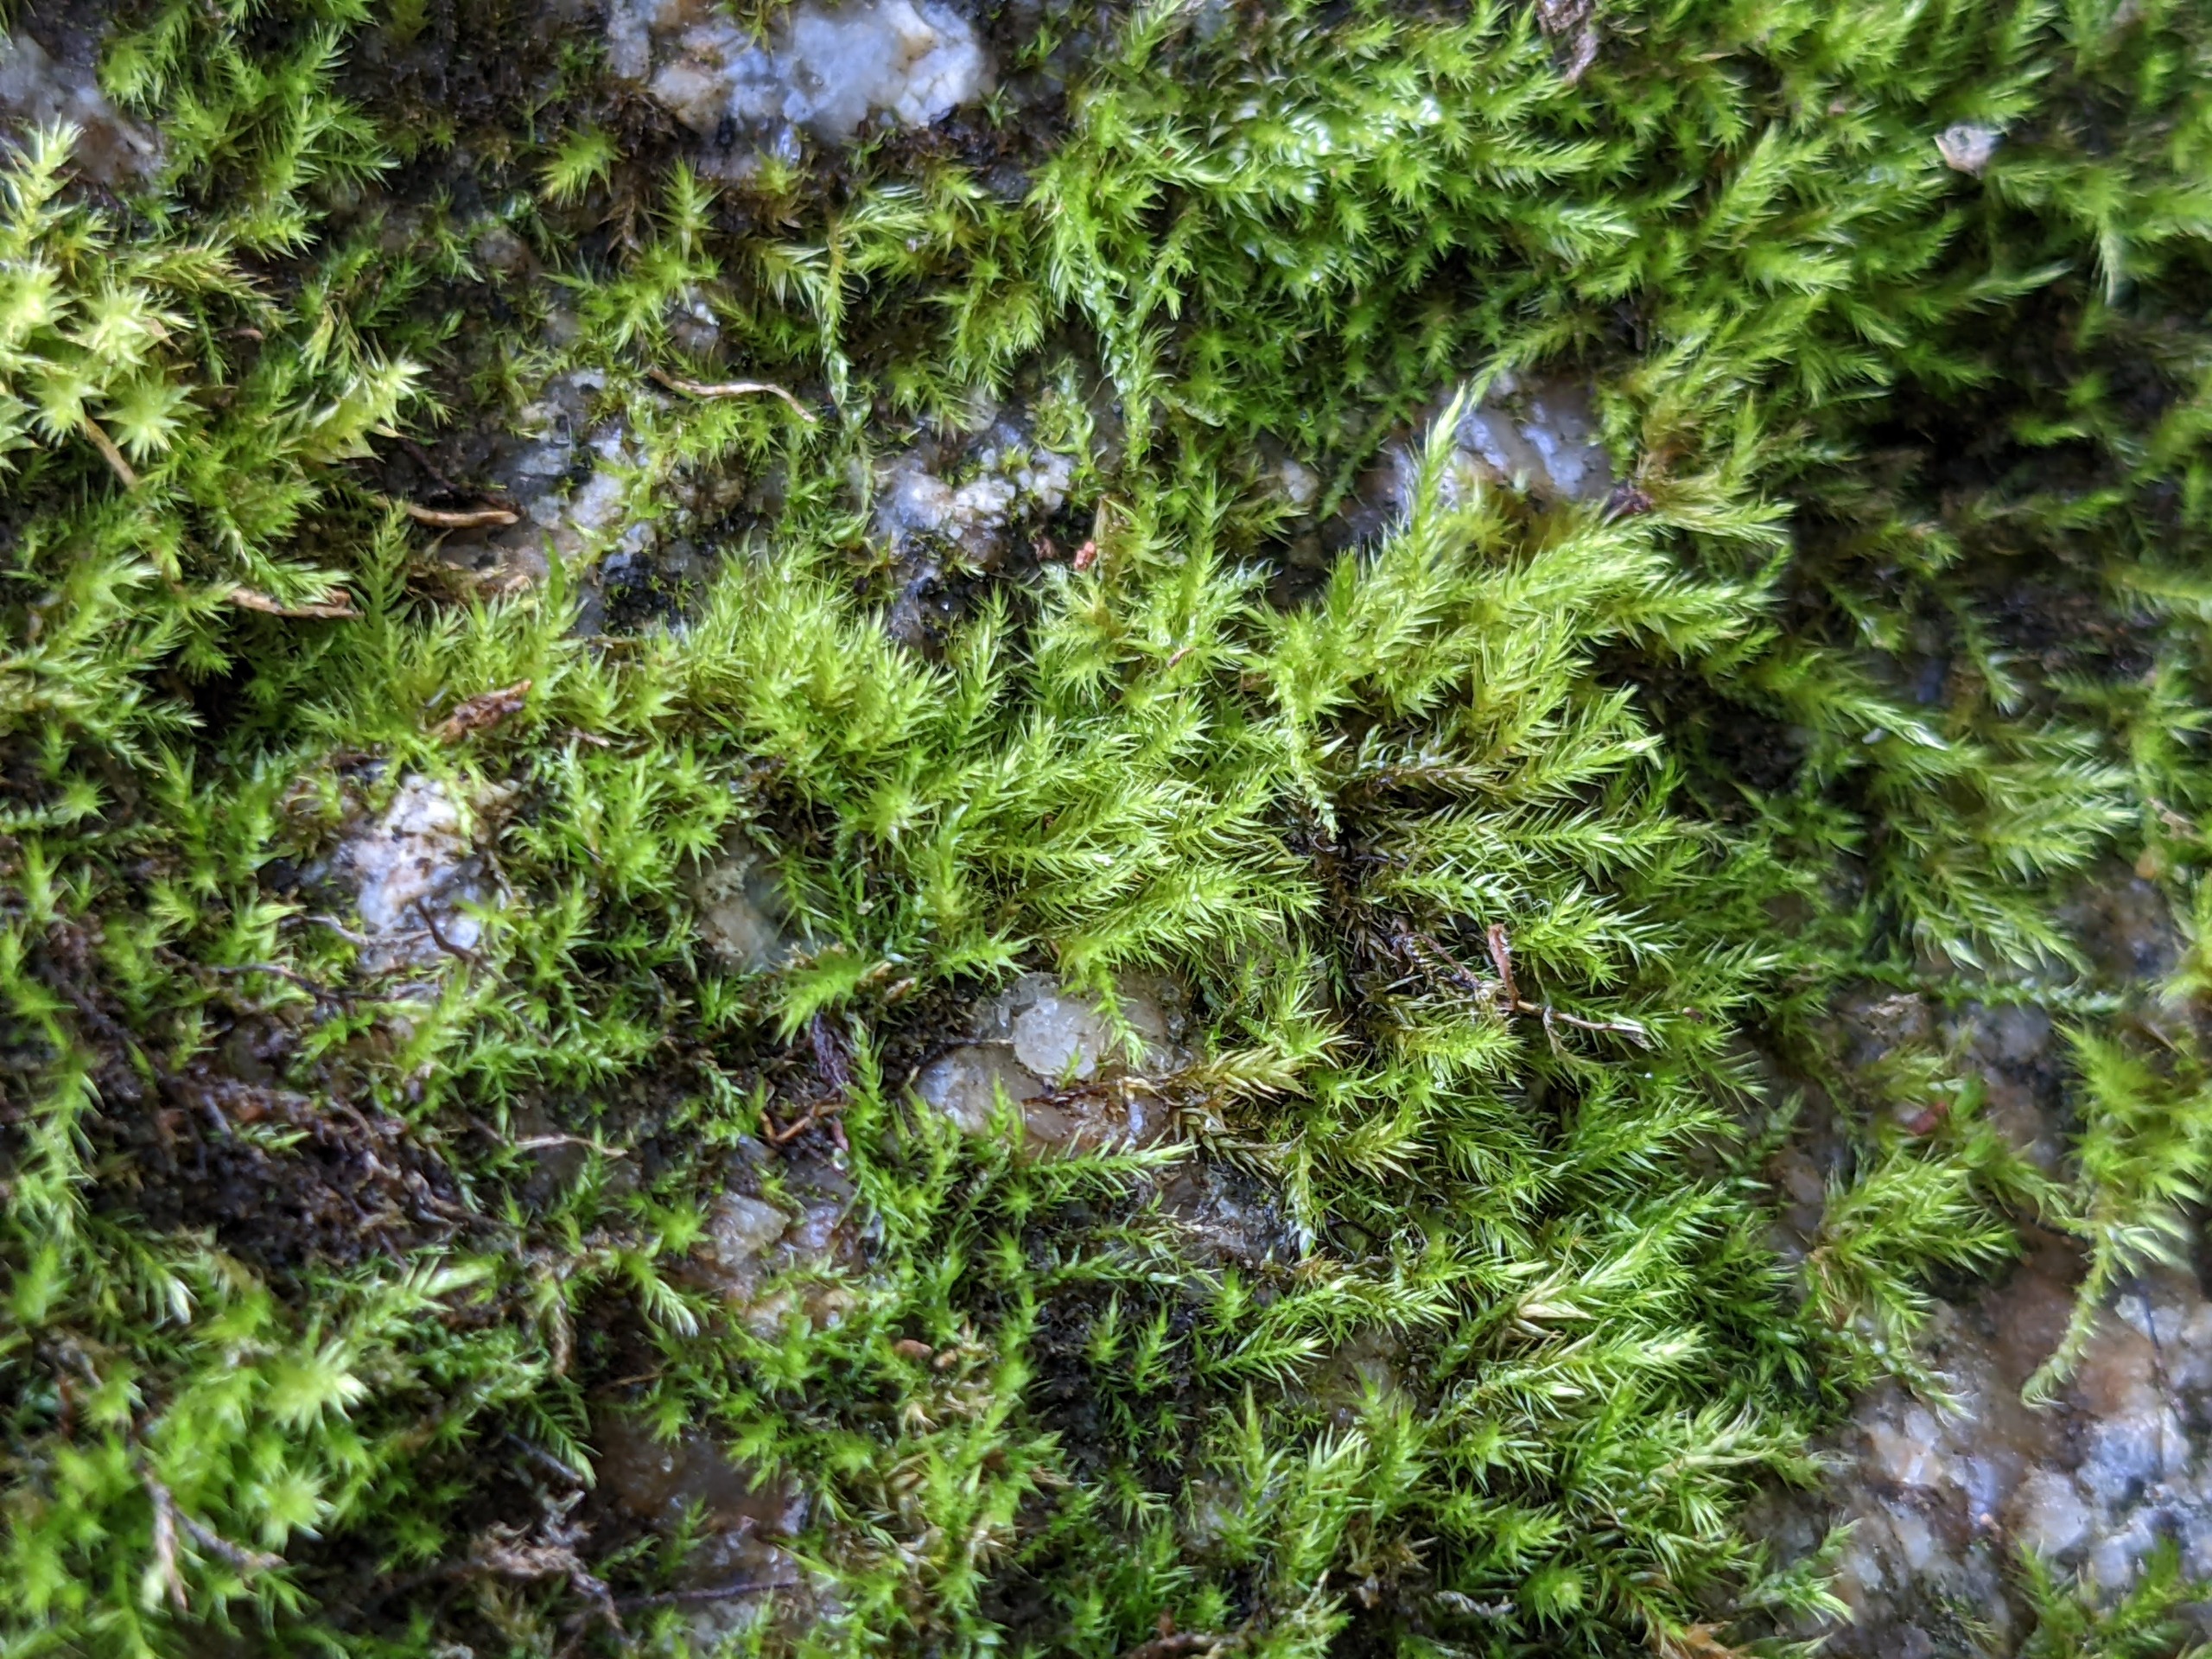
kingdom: Plantae
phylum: Bryophyta
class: Bryopsida
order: Hypnales
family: Brachytheciaceae
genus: Sciuro-hypnum
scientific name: Sciuro-hypnum populeum
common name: Park-kortkapsel
